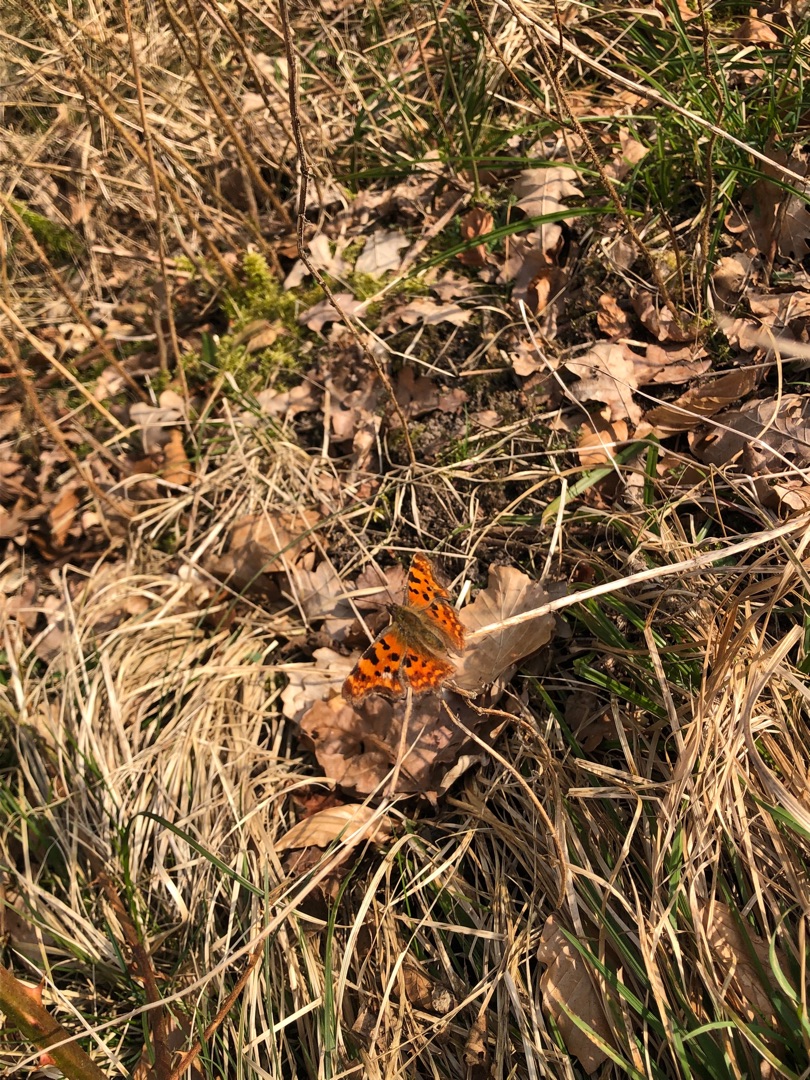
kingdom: Animalia
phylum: Arthropoda
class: Insecta
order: Lepidoptera
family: Nymphalidae
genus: Polygonia
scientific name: Polygonia c-album
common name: Det hvide C
